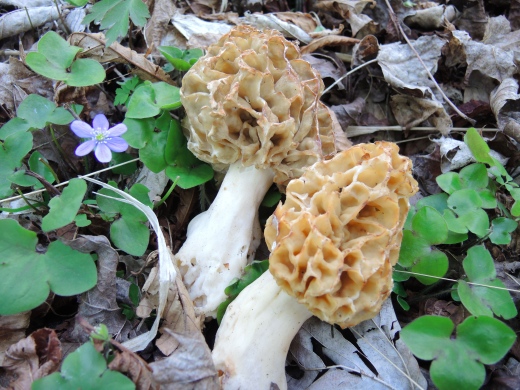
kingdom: Fungi
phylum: Ascomycota
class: Pezizomycetes
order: Pezizales
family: Morchellaceae
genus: Morchella
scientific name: Morchella esculenta
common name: spiselig morkel
